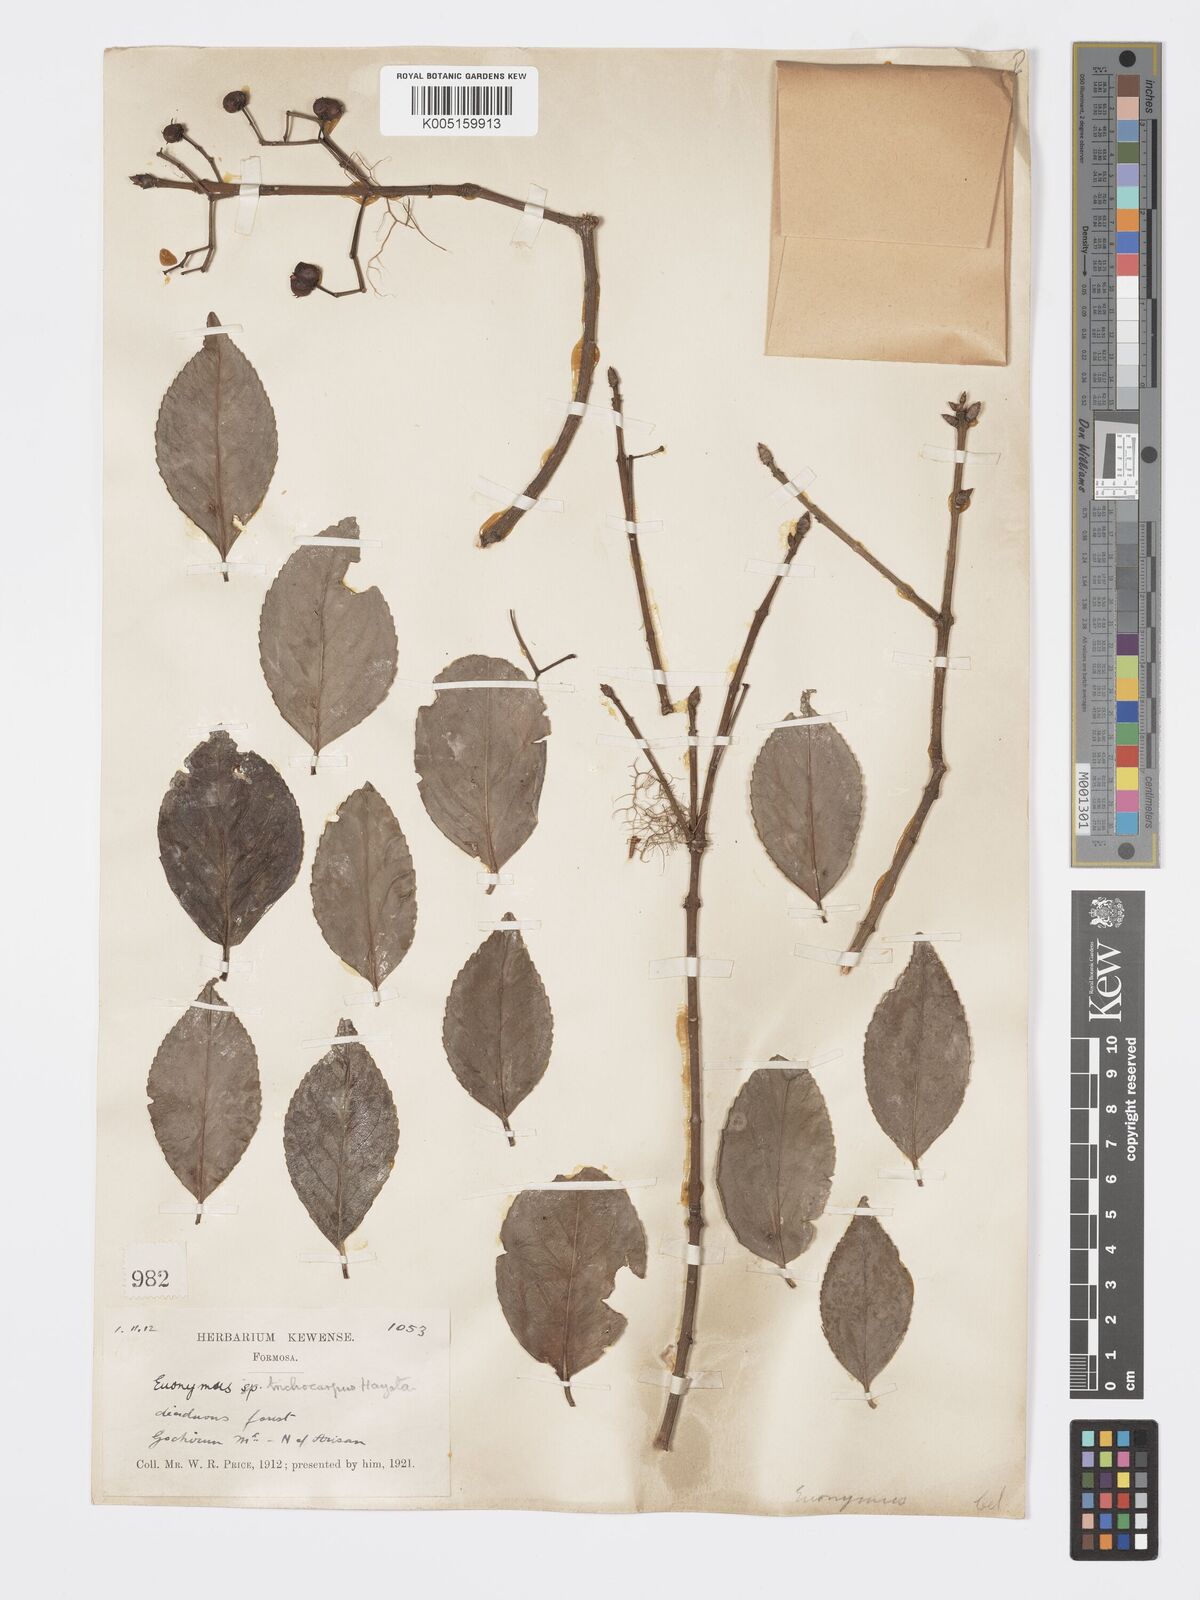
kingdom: Plantae
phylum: Tracheophyta
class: Magnoliopsida
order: Celastrales
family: Celastraceae
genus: Euonymus
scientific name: Euonymus echinatus
